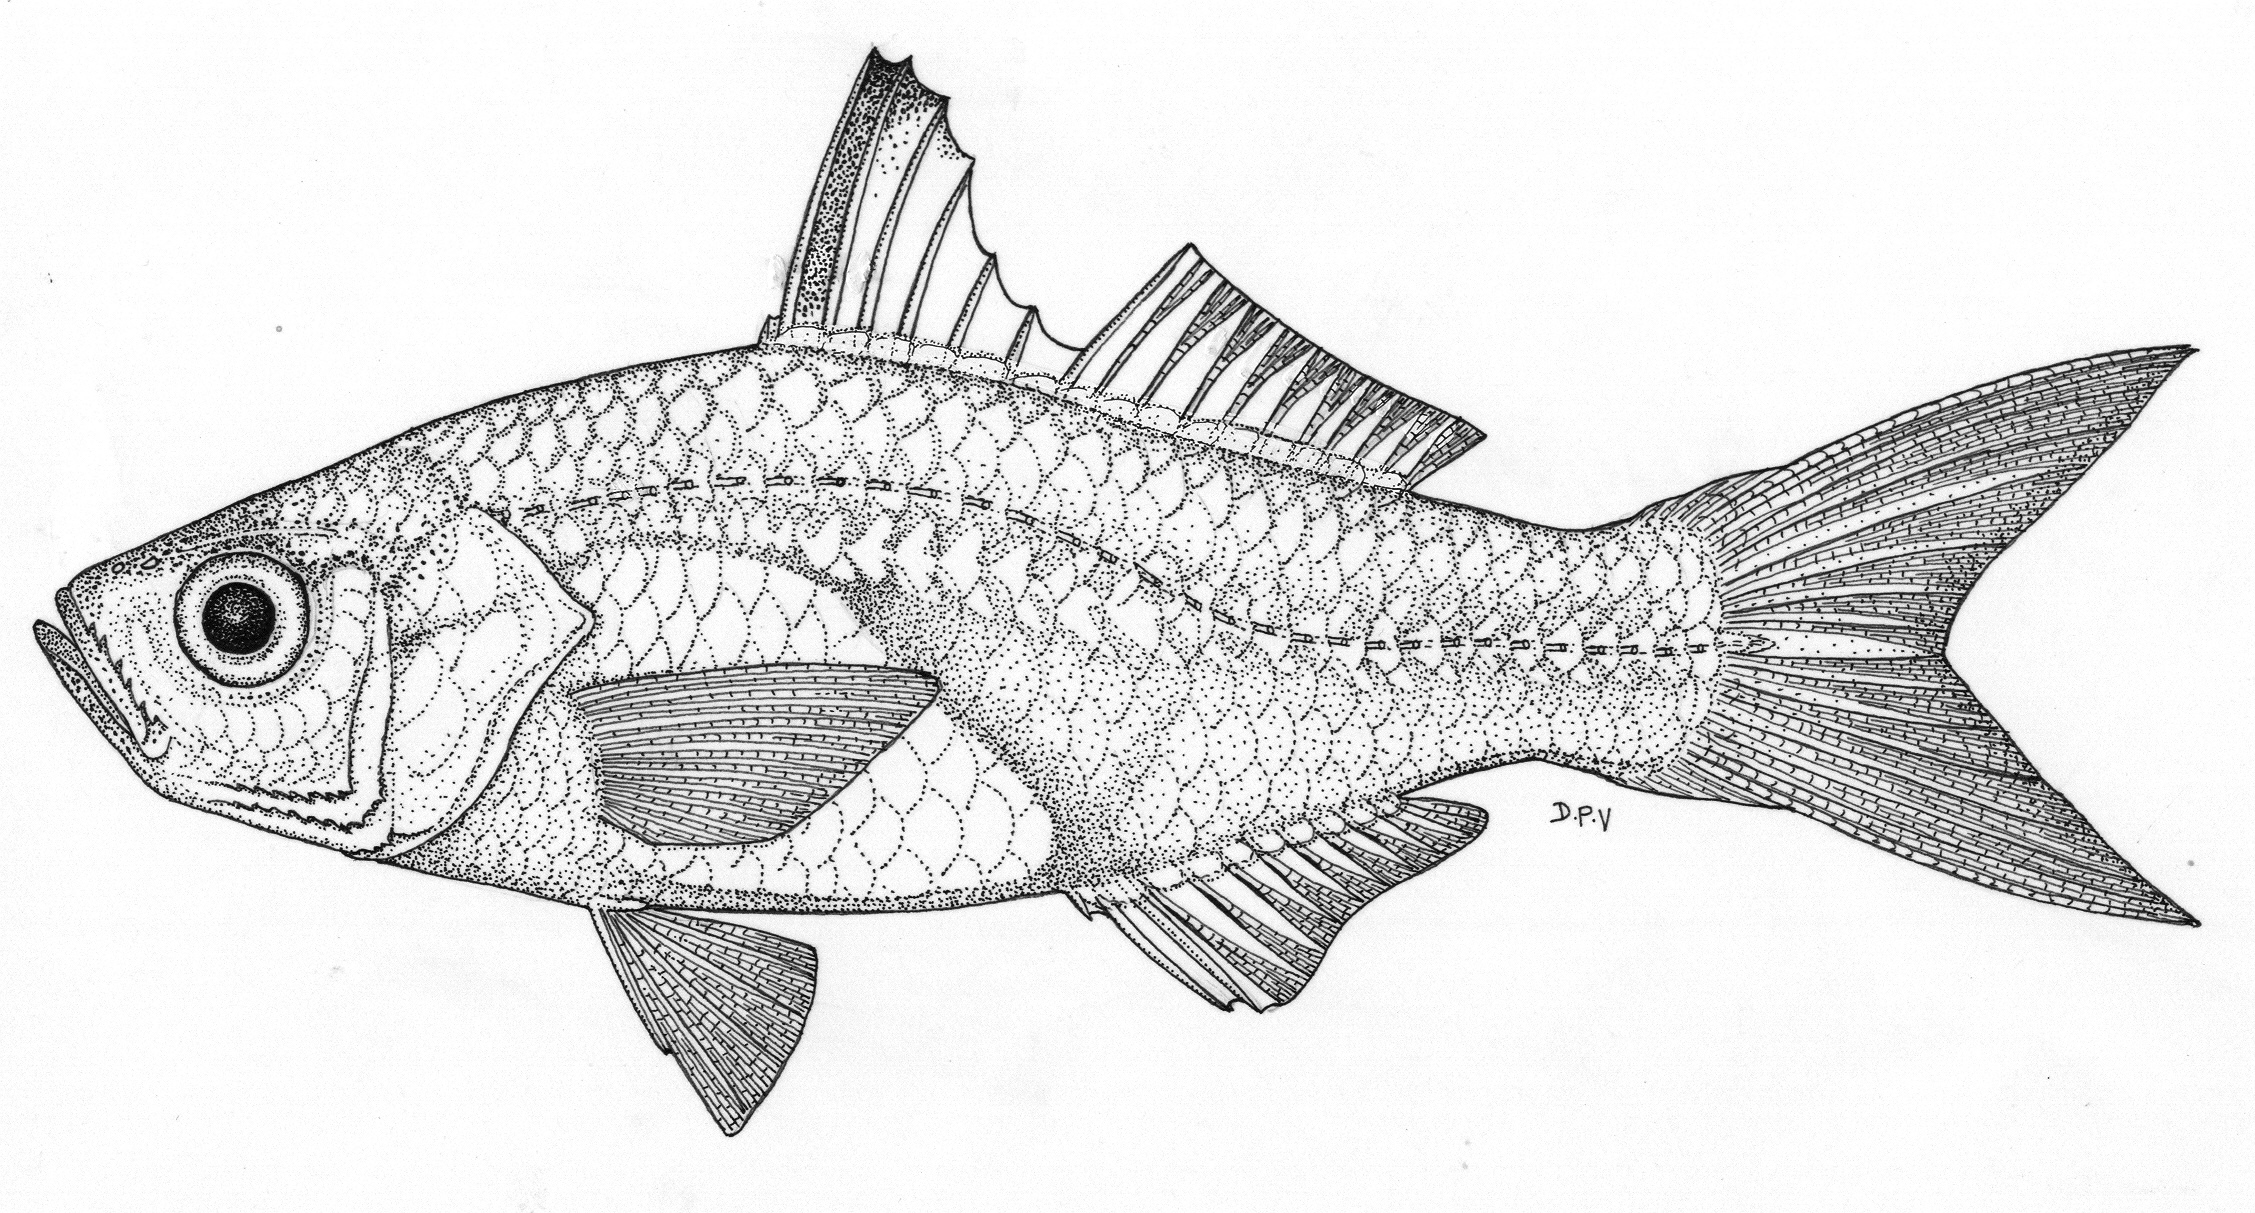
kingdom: Animalia
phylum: Chordata
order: Perciformes
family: Ambassidae
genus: Ambassis
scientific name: Ambassis natalensis
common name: Slender glassy
